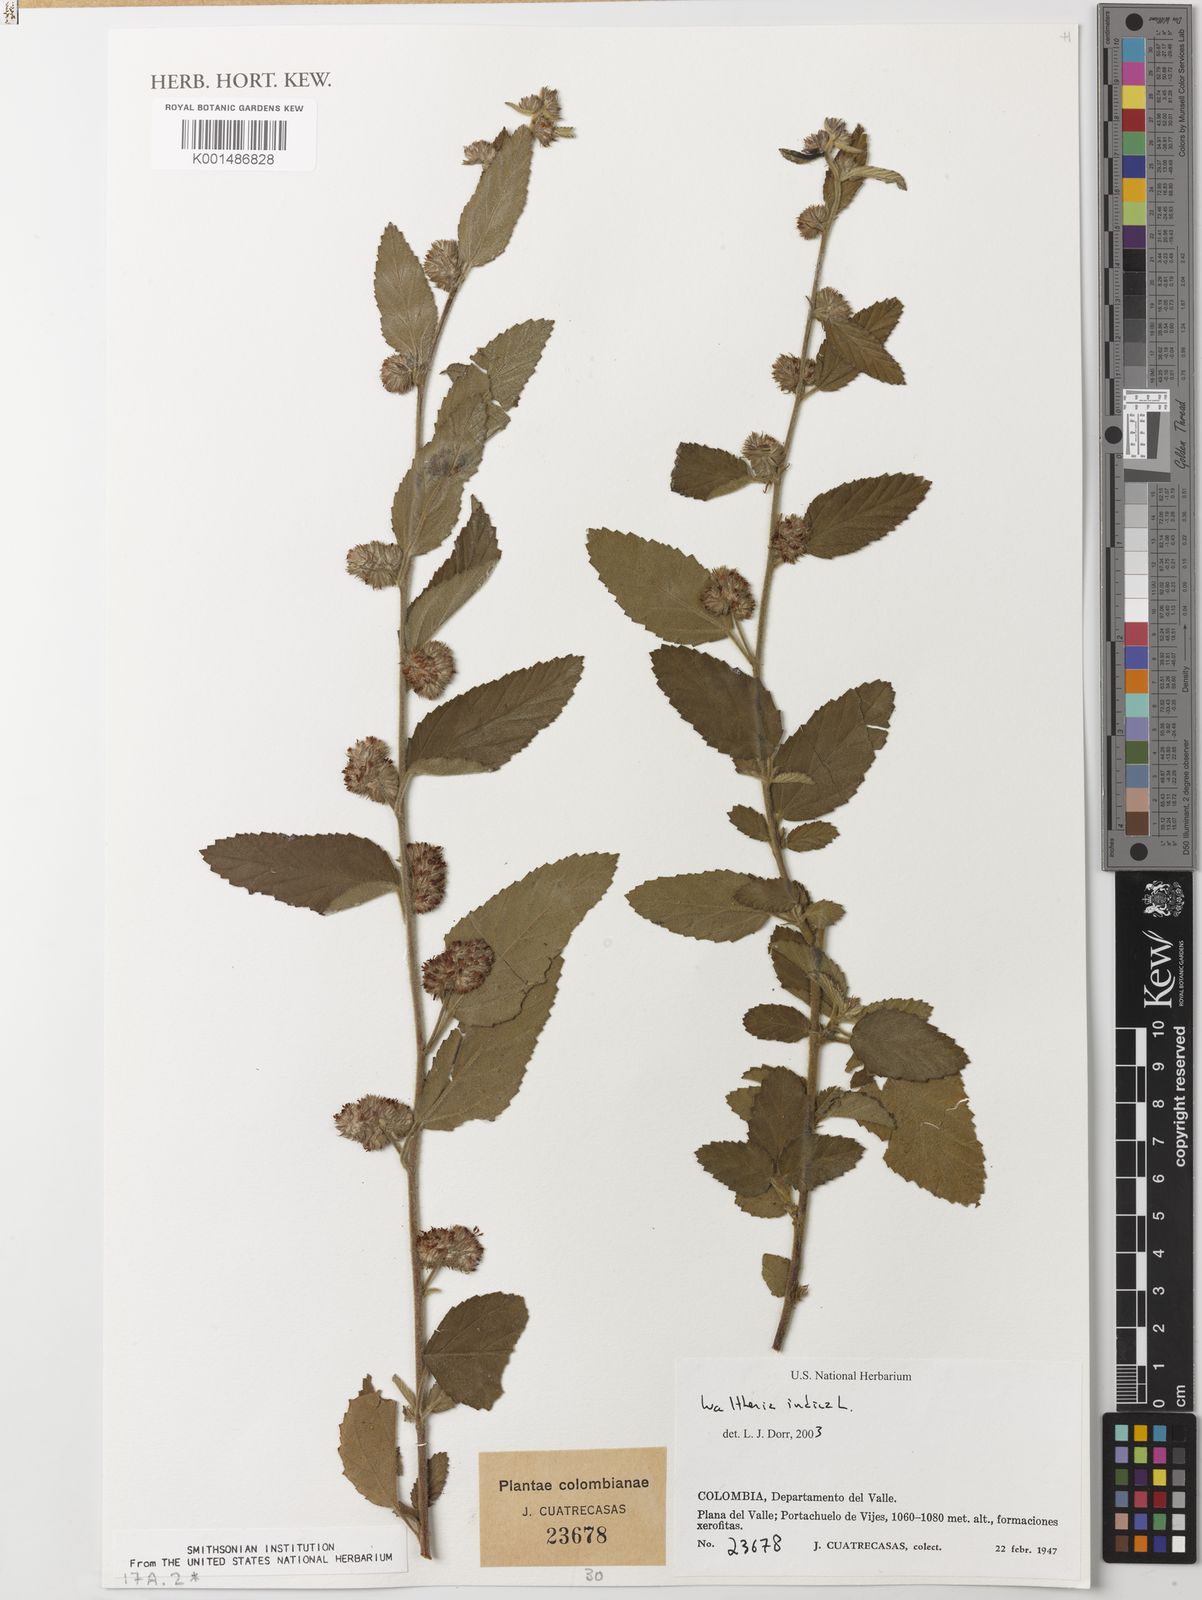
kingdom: Plantae
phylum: Tracheophyta
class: Magnoliopsida
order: Malvales
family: Malvaceae
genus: Waltheria
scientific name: Waltheria indica
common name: Leather-coat
